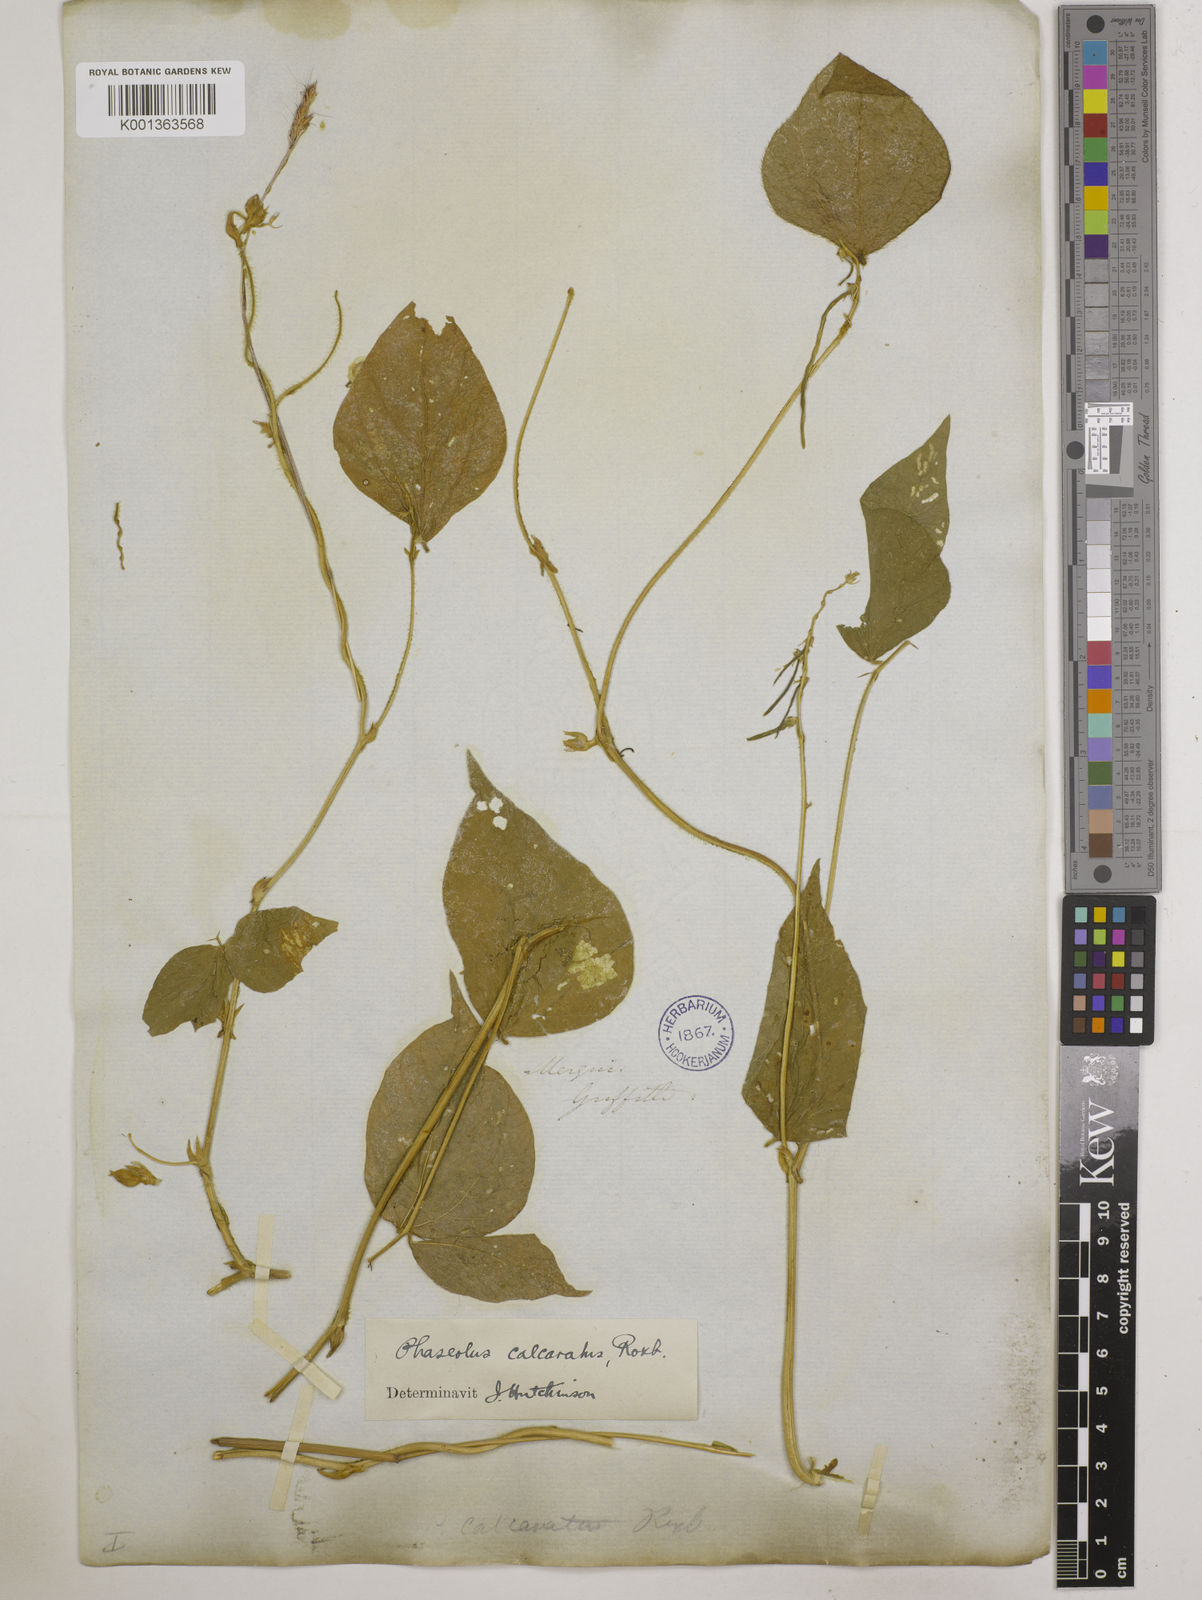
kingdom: Plantae
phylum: Tracheophyta
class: Magnoliopsida
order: Fabales
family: Fabaceae
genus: Vigna
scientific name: Vigna umbellata
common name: Oriental-bean
